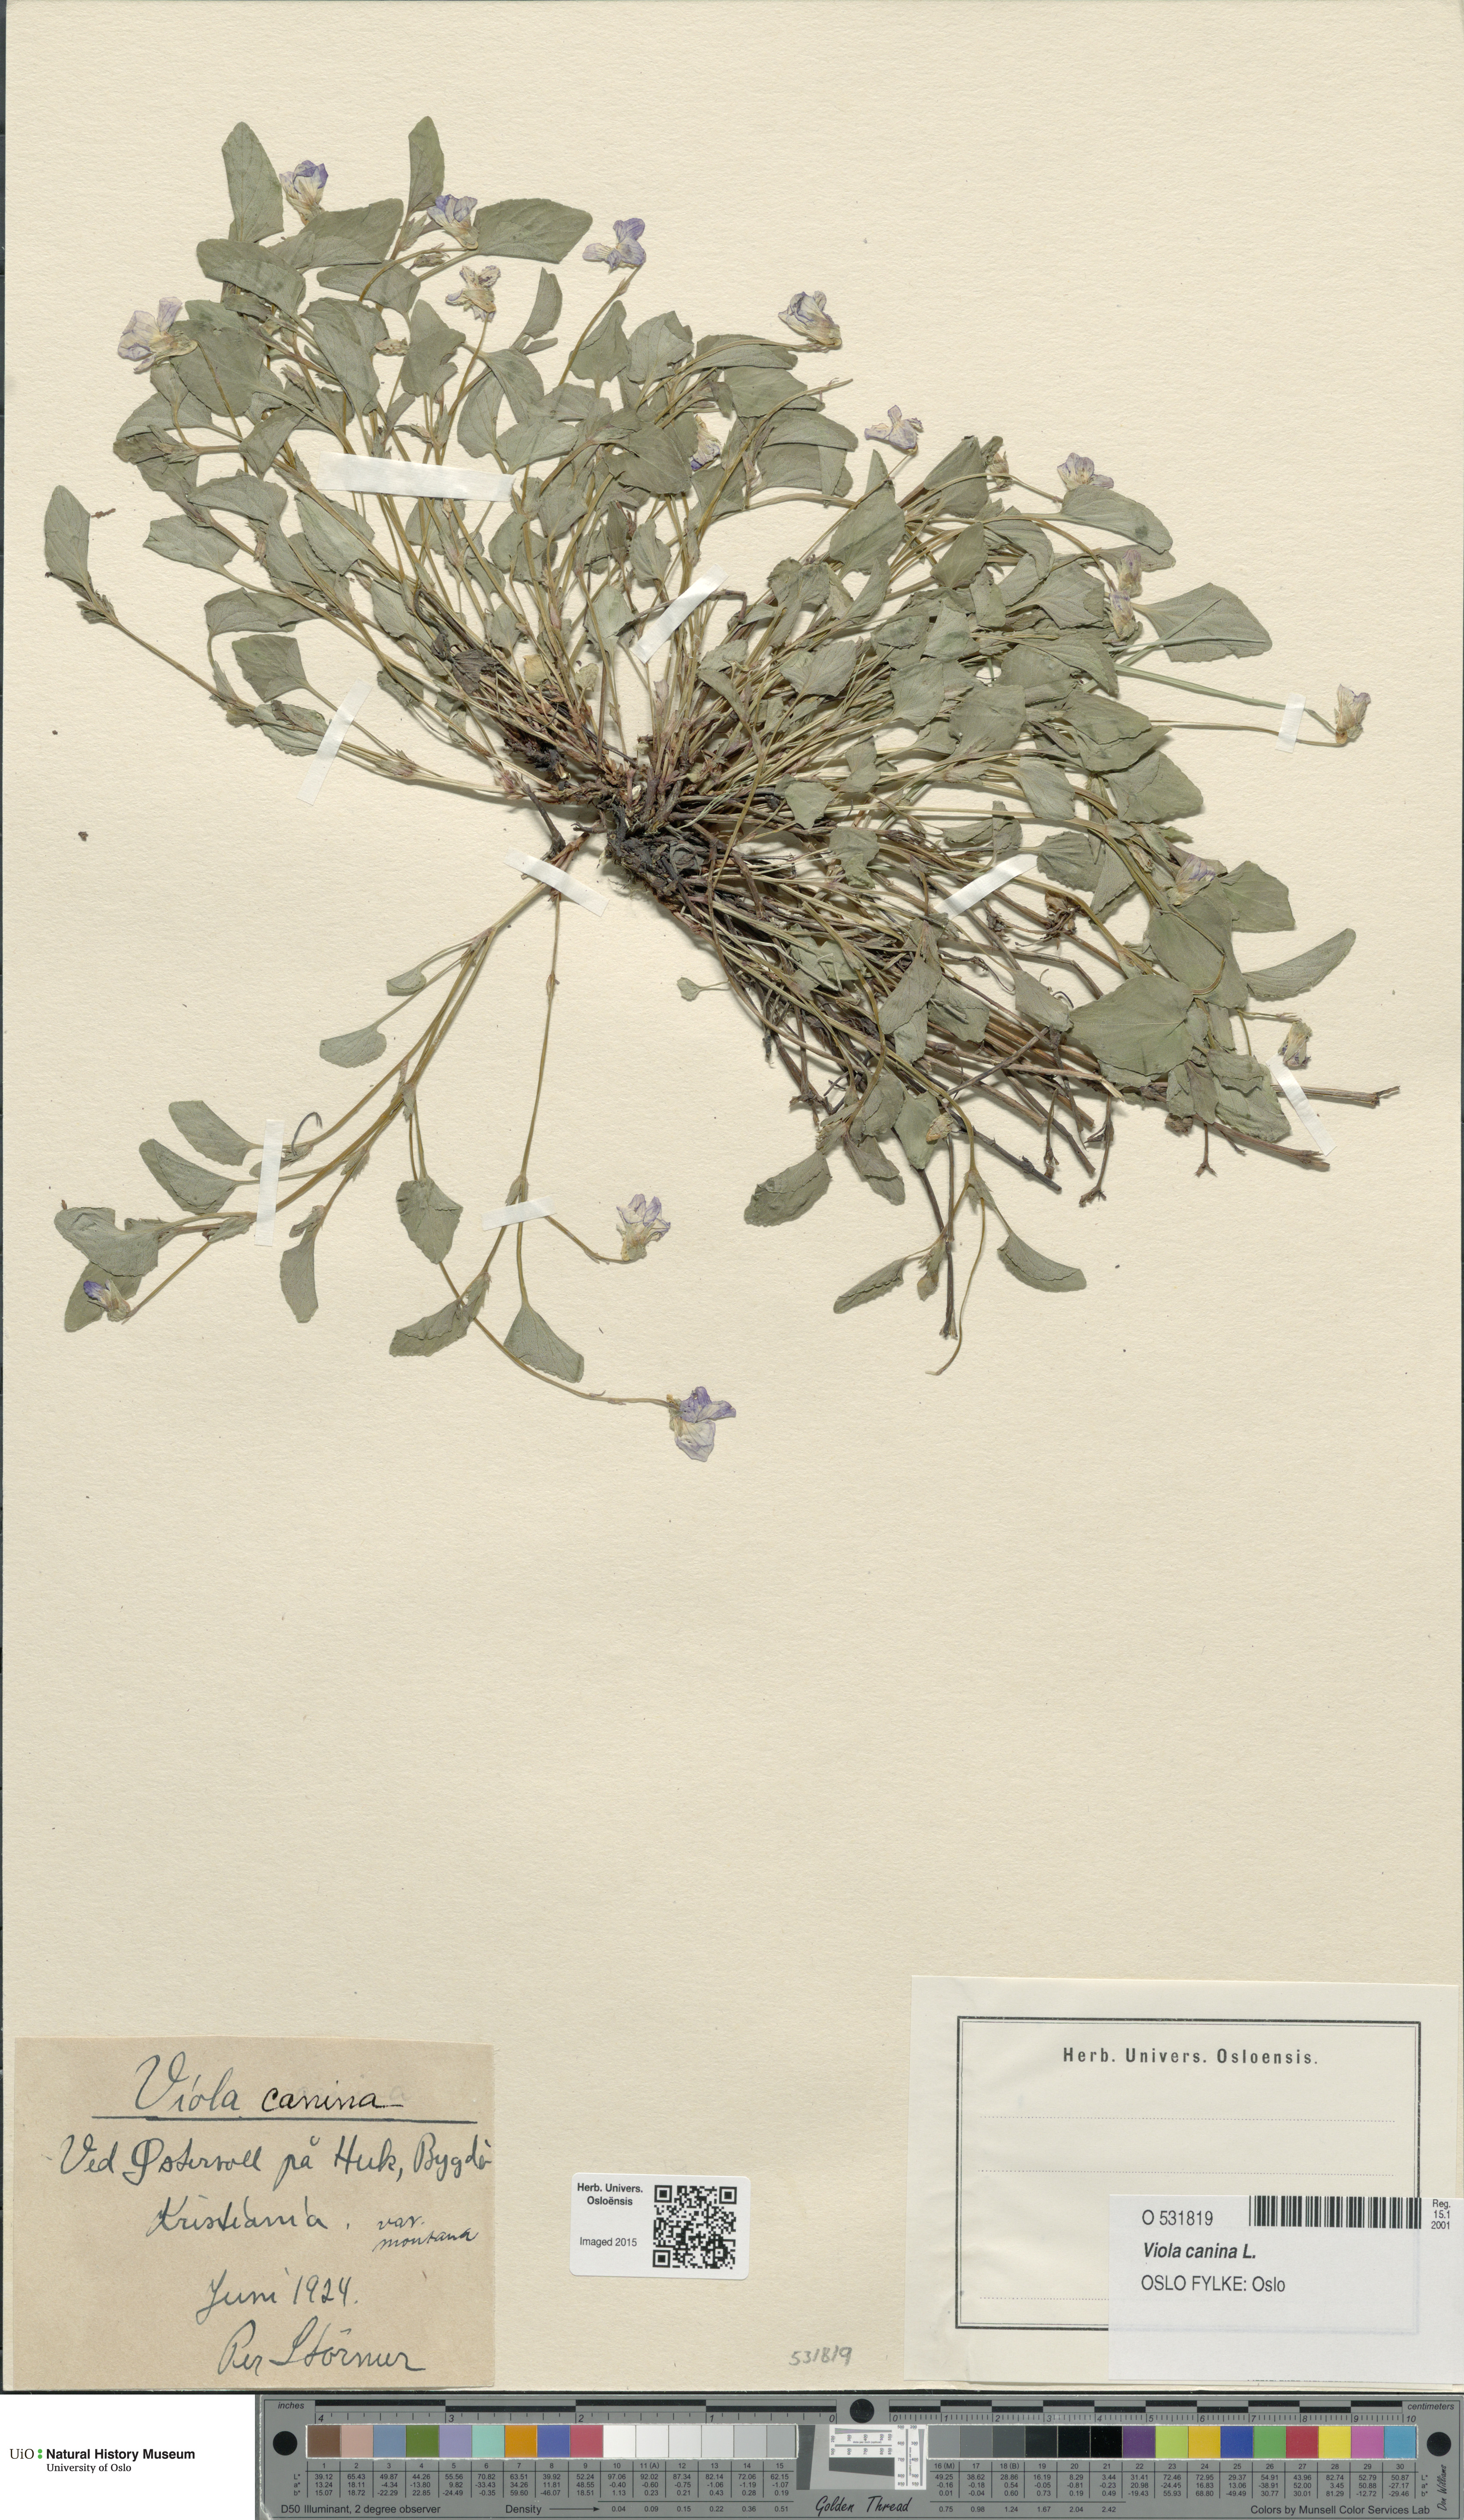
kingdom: Plantae
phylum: Tracheophyta
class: Magnoliopsida
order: Malpighiales
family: Violaceae
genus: Viola
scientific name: Viola canina
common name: Heath dog-violet
